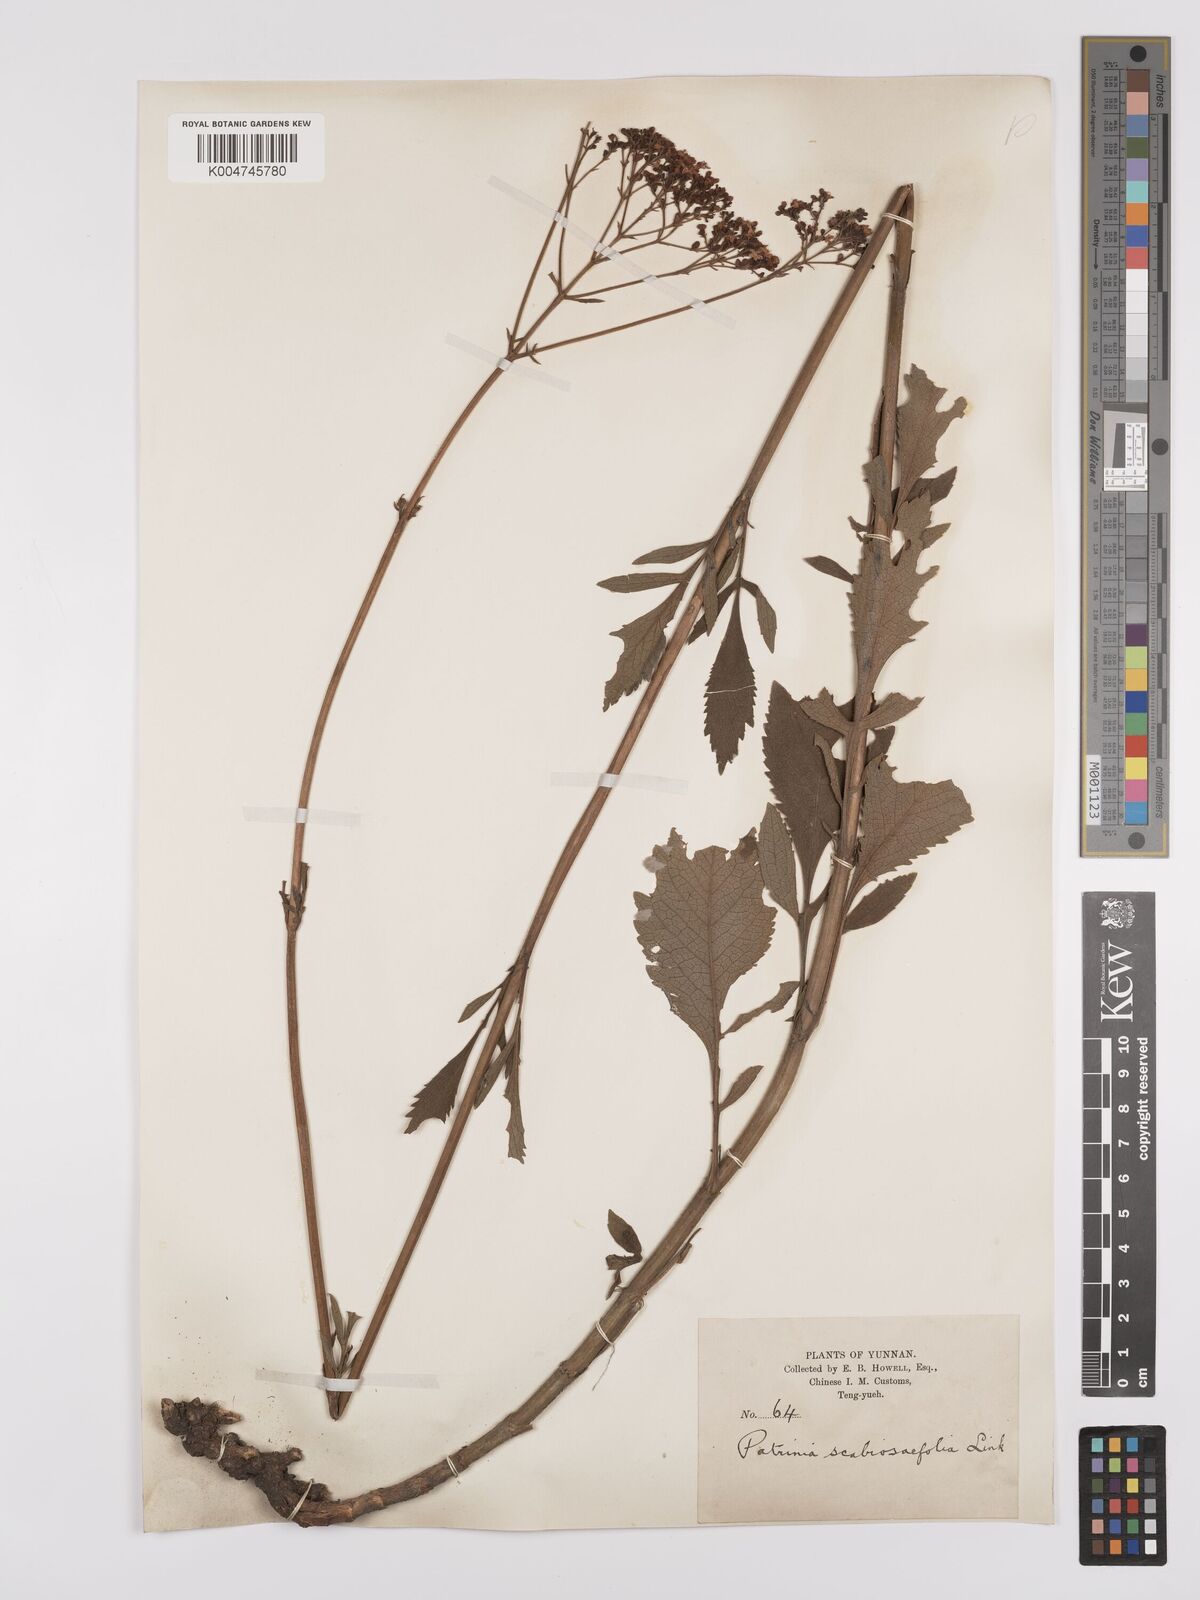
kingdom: Plantae
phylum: Tracheophyta
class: Magnoliopsida
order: Dipsacales
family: Caprifoliaceae
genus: Patrinia
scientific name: Patrinia
